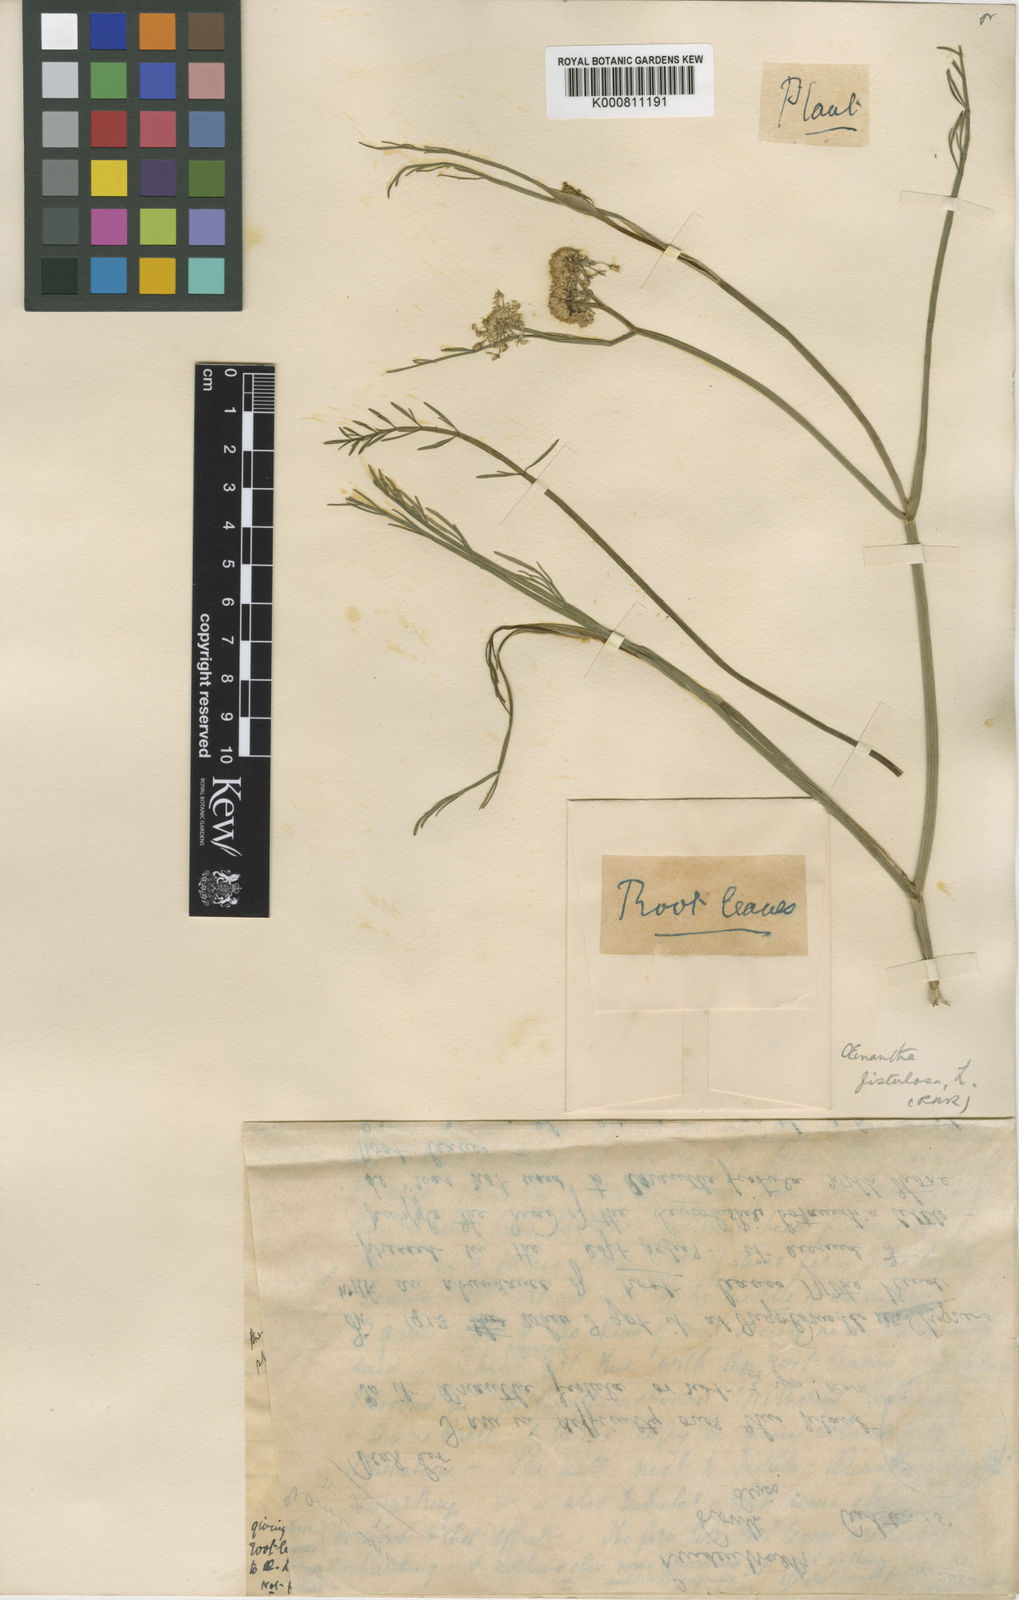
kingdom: Plantae
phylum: Tracheophyta
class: Magnoliopsida
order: Apiales
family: Apiaceae
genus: Oenanthe
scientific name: Oenanthe fistulosa
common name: Tubular water-dropwort
